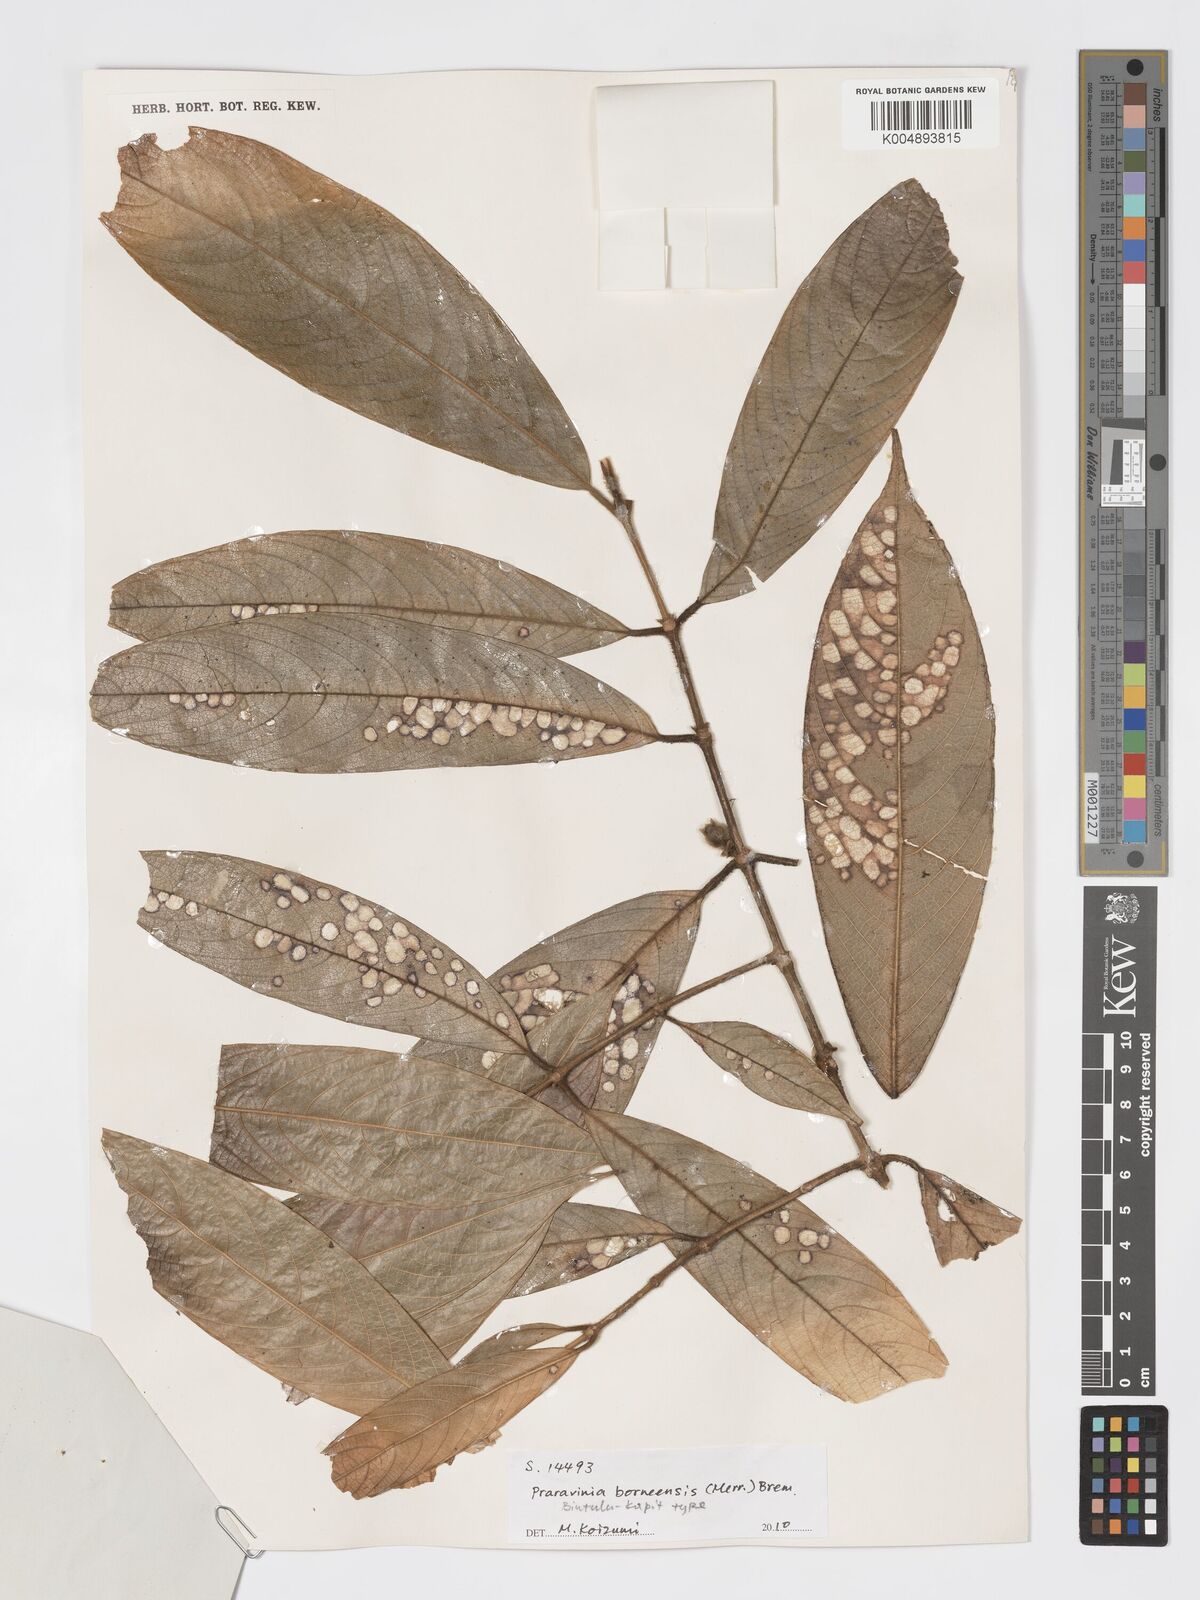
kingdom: Plantae
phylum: Tracheophyta
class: Magnoliopsida
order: Gentianales
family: Rubiaceae
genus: Praravinia
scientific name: Praravinia borneensis
